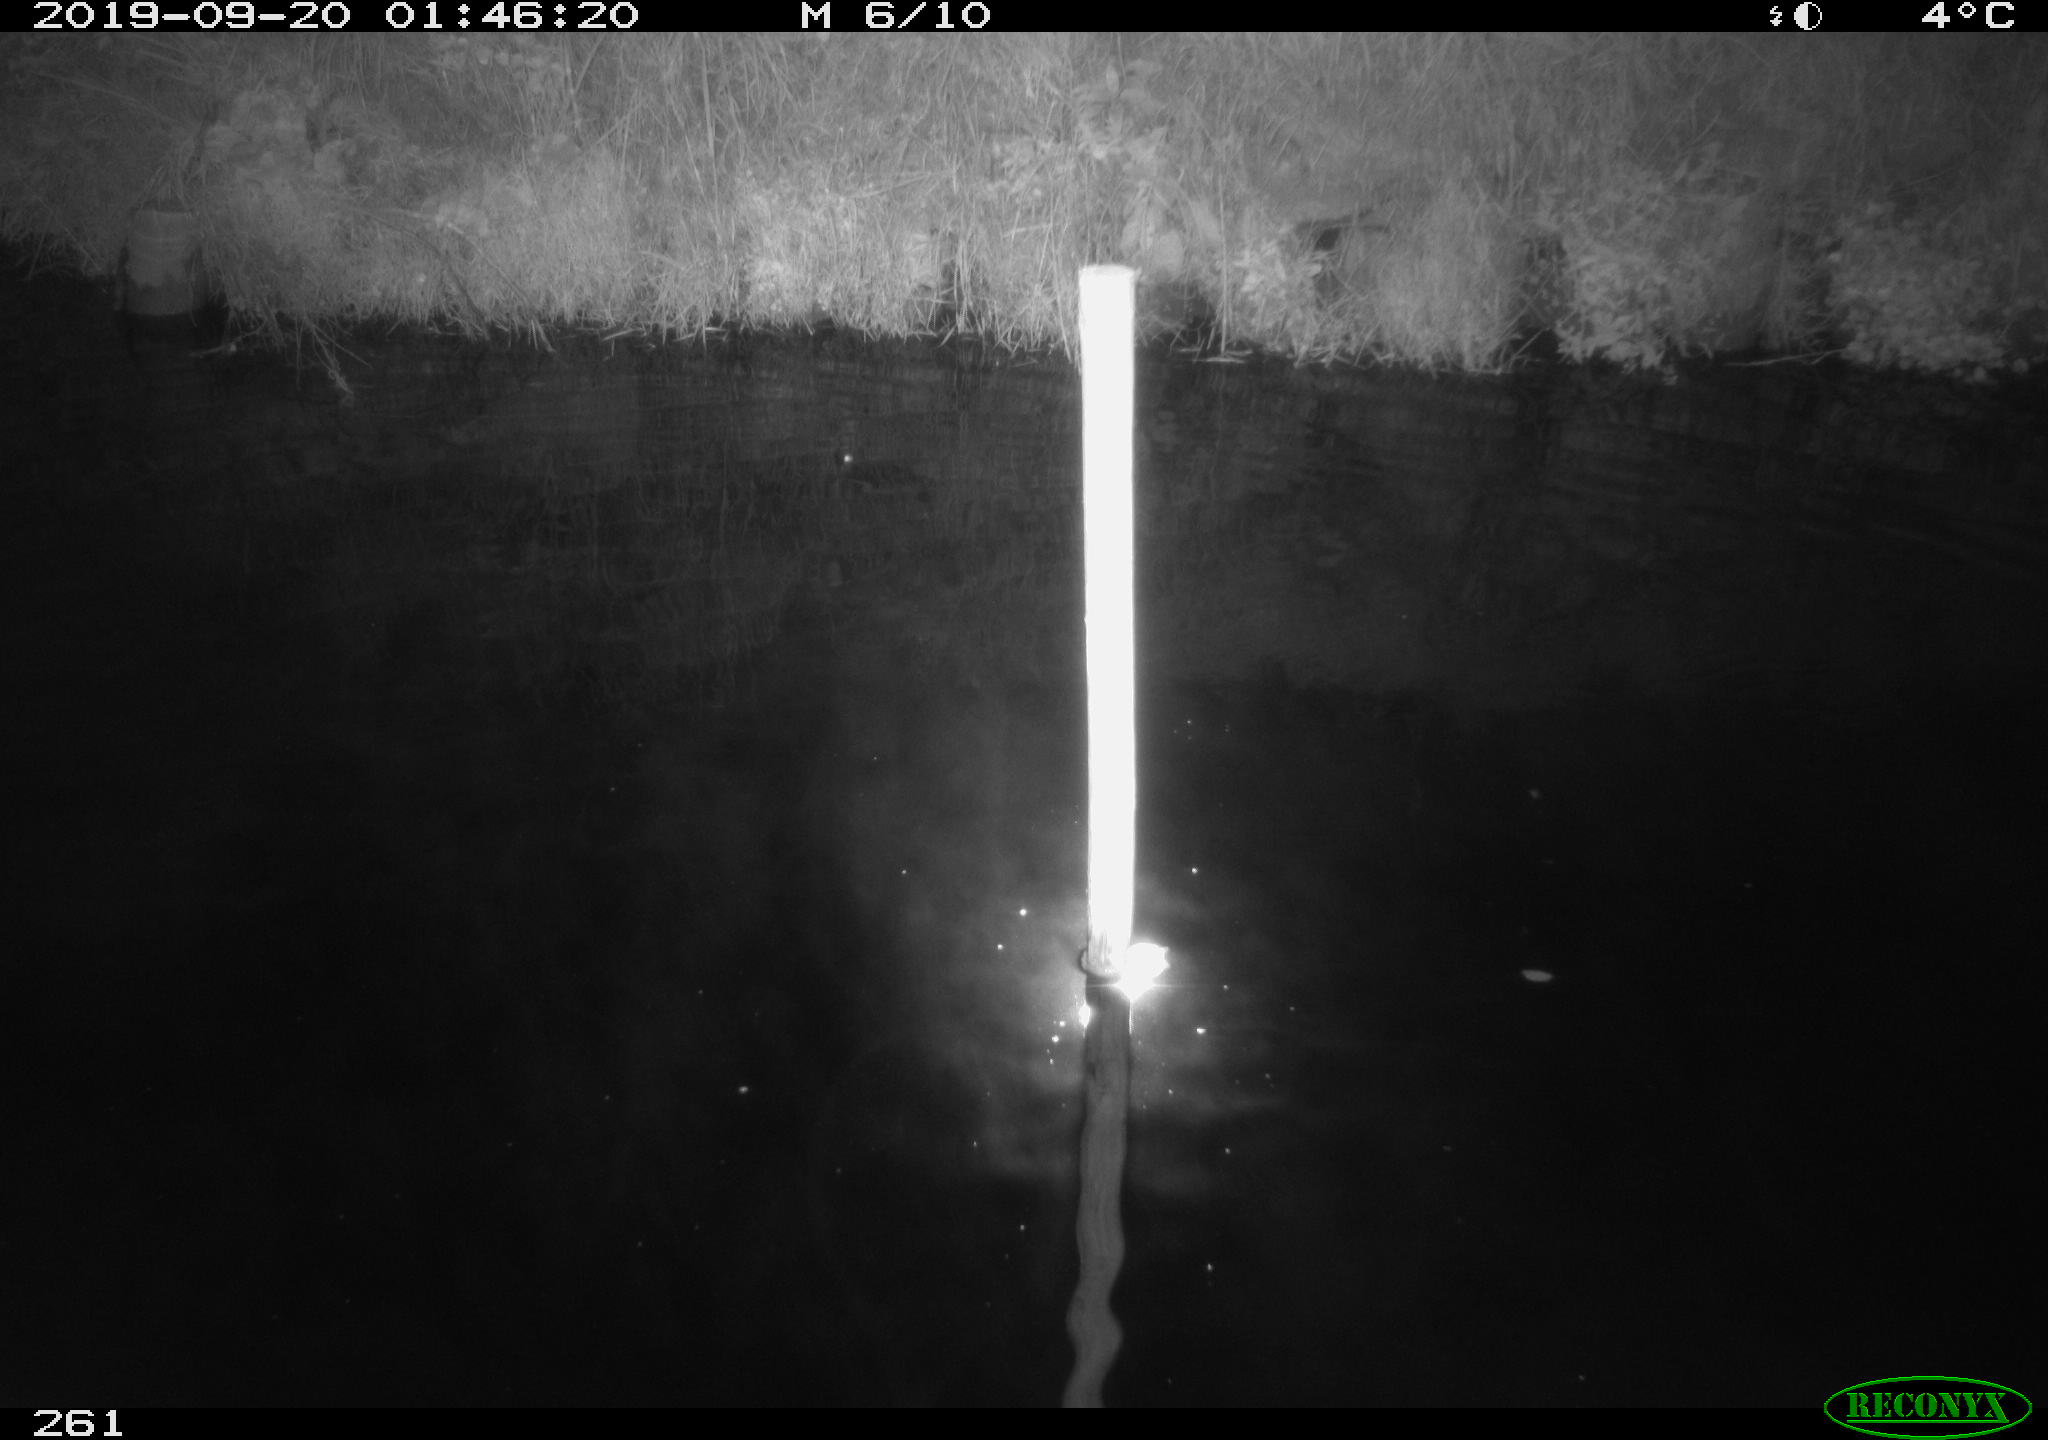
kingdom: Animalia
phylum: Chordata
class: Aves
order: Anseriformes
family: Anatidae
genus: Anas
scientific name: Anas platyrhynchos
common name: Mallard
